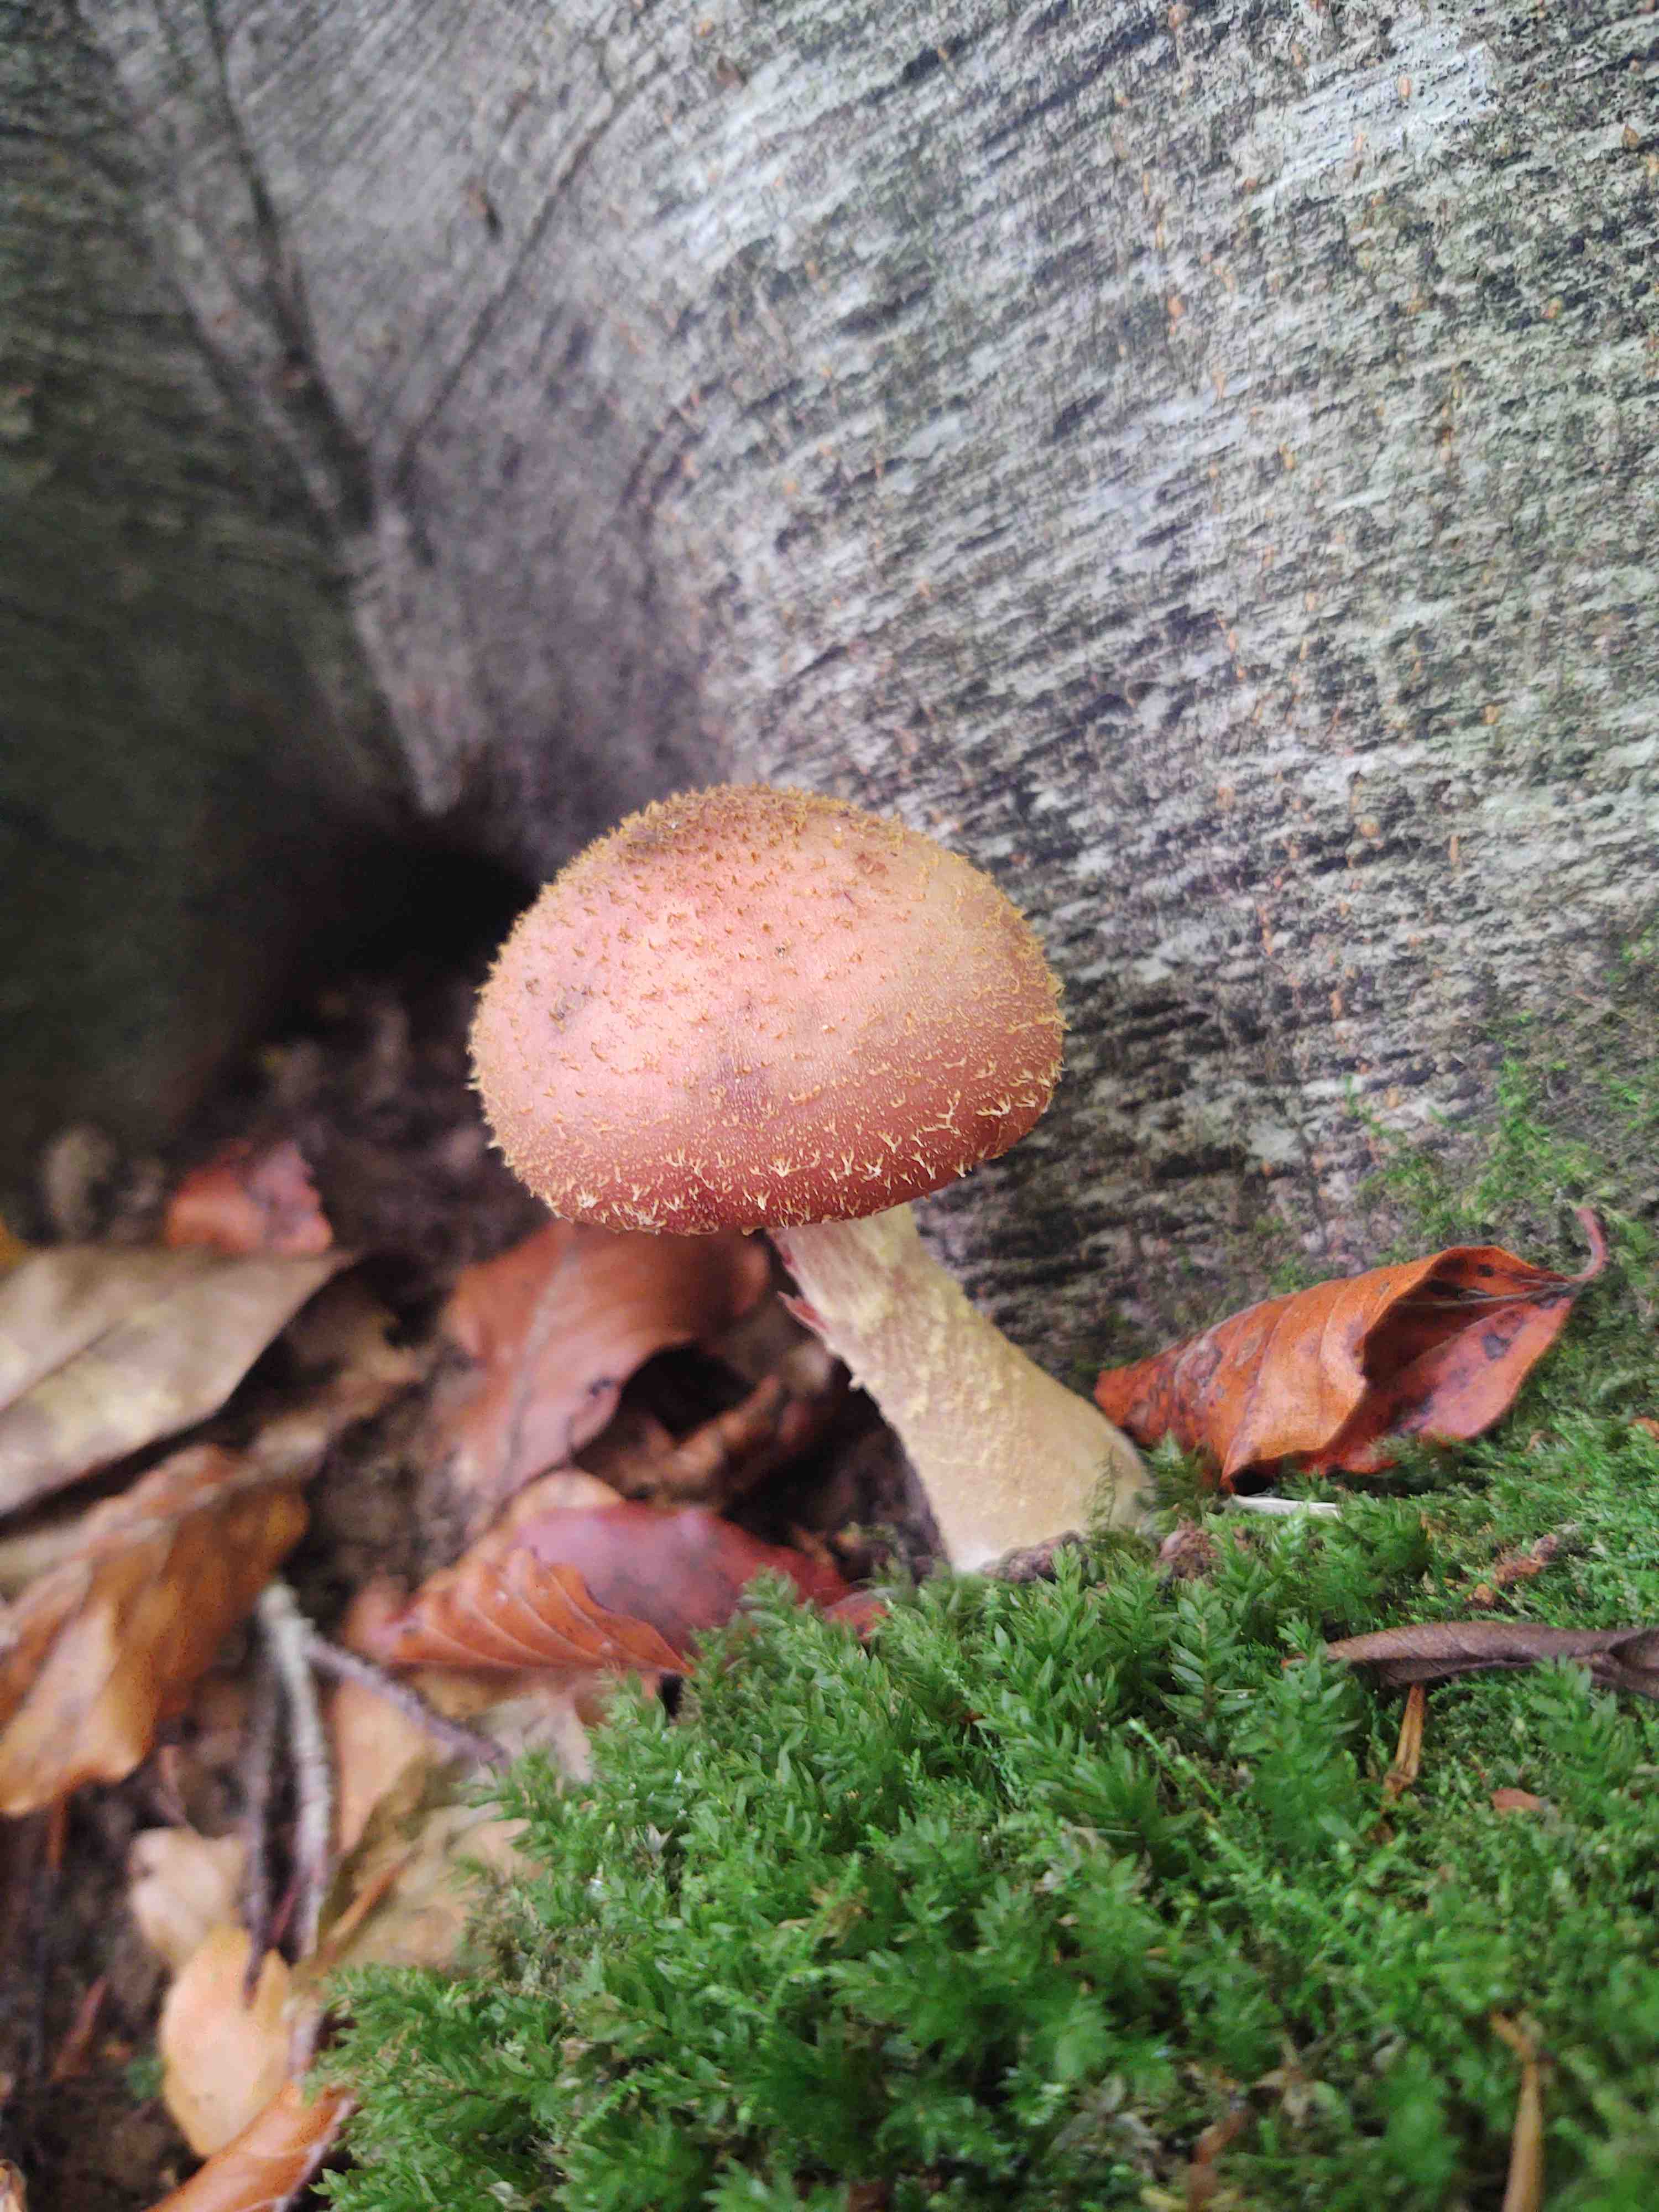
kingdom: Fungi
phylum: Basidiomycota
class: Agaricomycetes
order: Agaricales
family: Physalacriaceae
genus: Armillaria
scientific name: Armillaria lutea
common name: køllestokket honningsvamp
